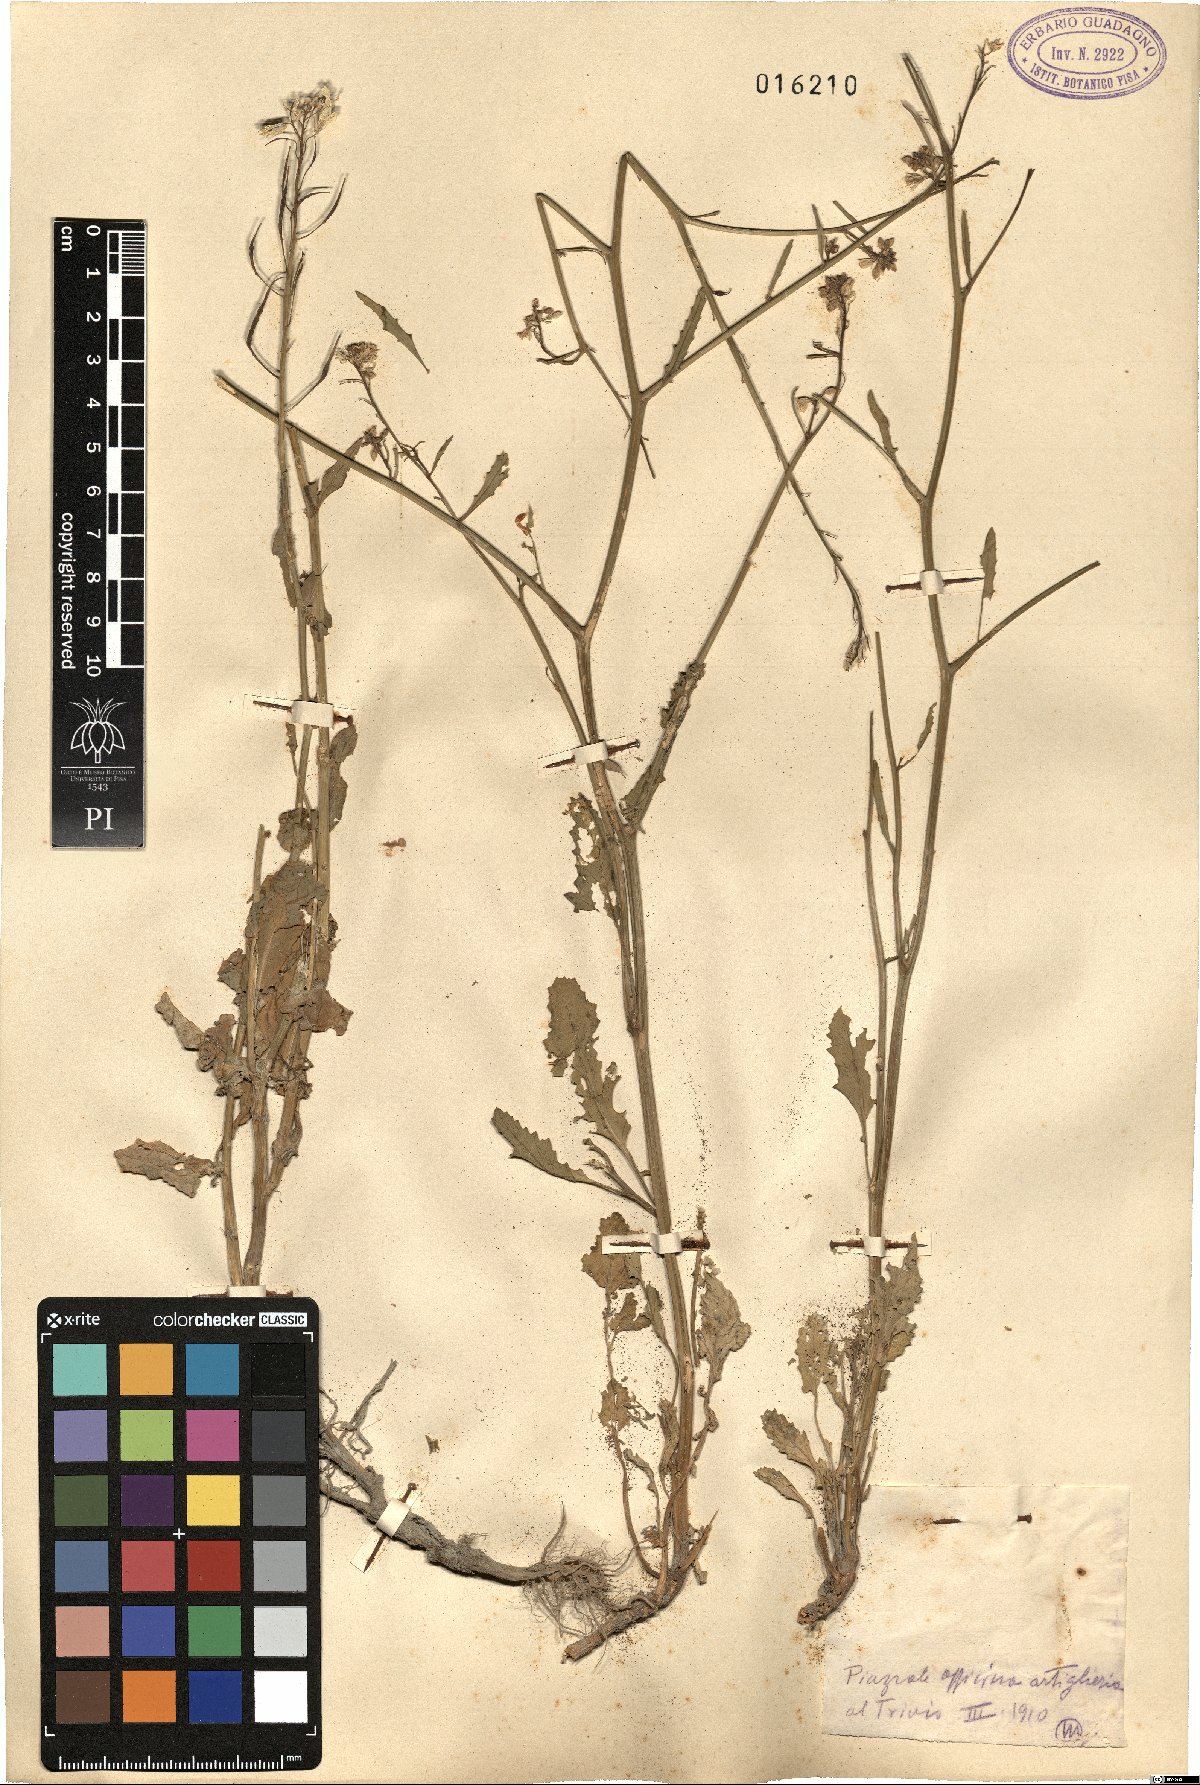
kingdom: Plantae
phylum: Tracheophyta
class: Magnoliopsida
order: Brassicales
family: Brassicaceae
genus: Brassica
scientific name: Brassica
